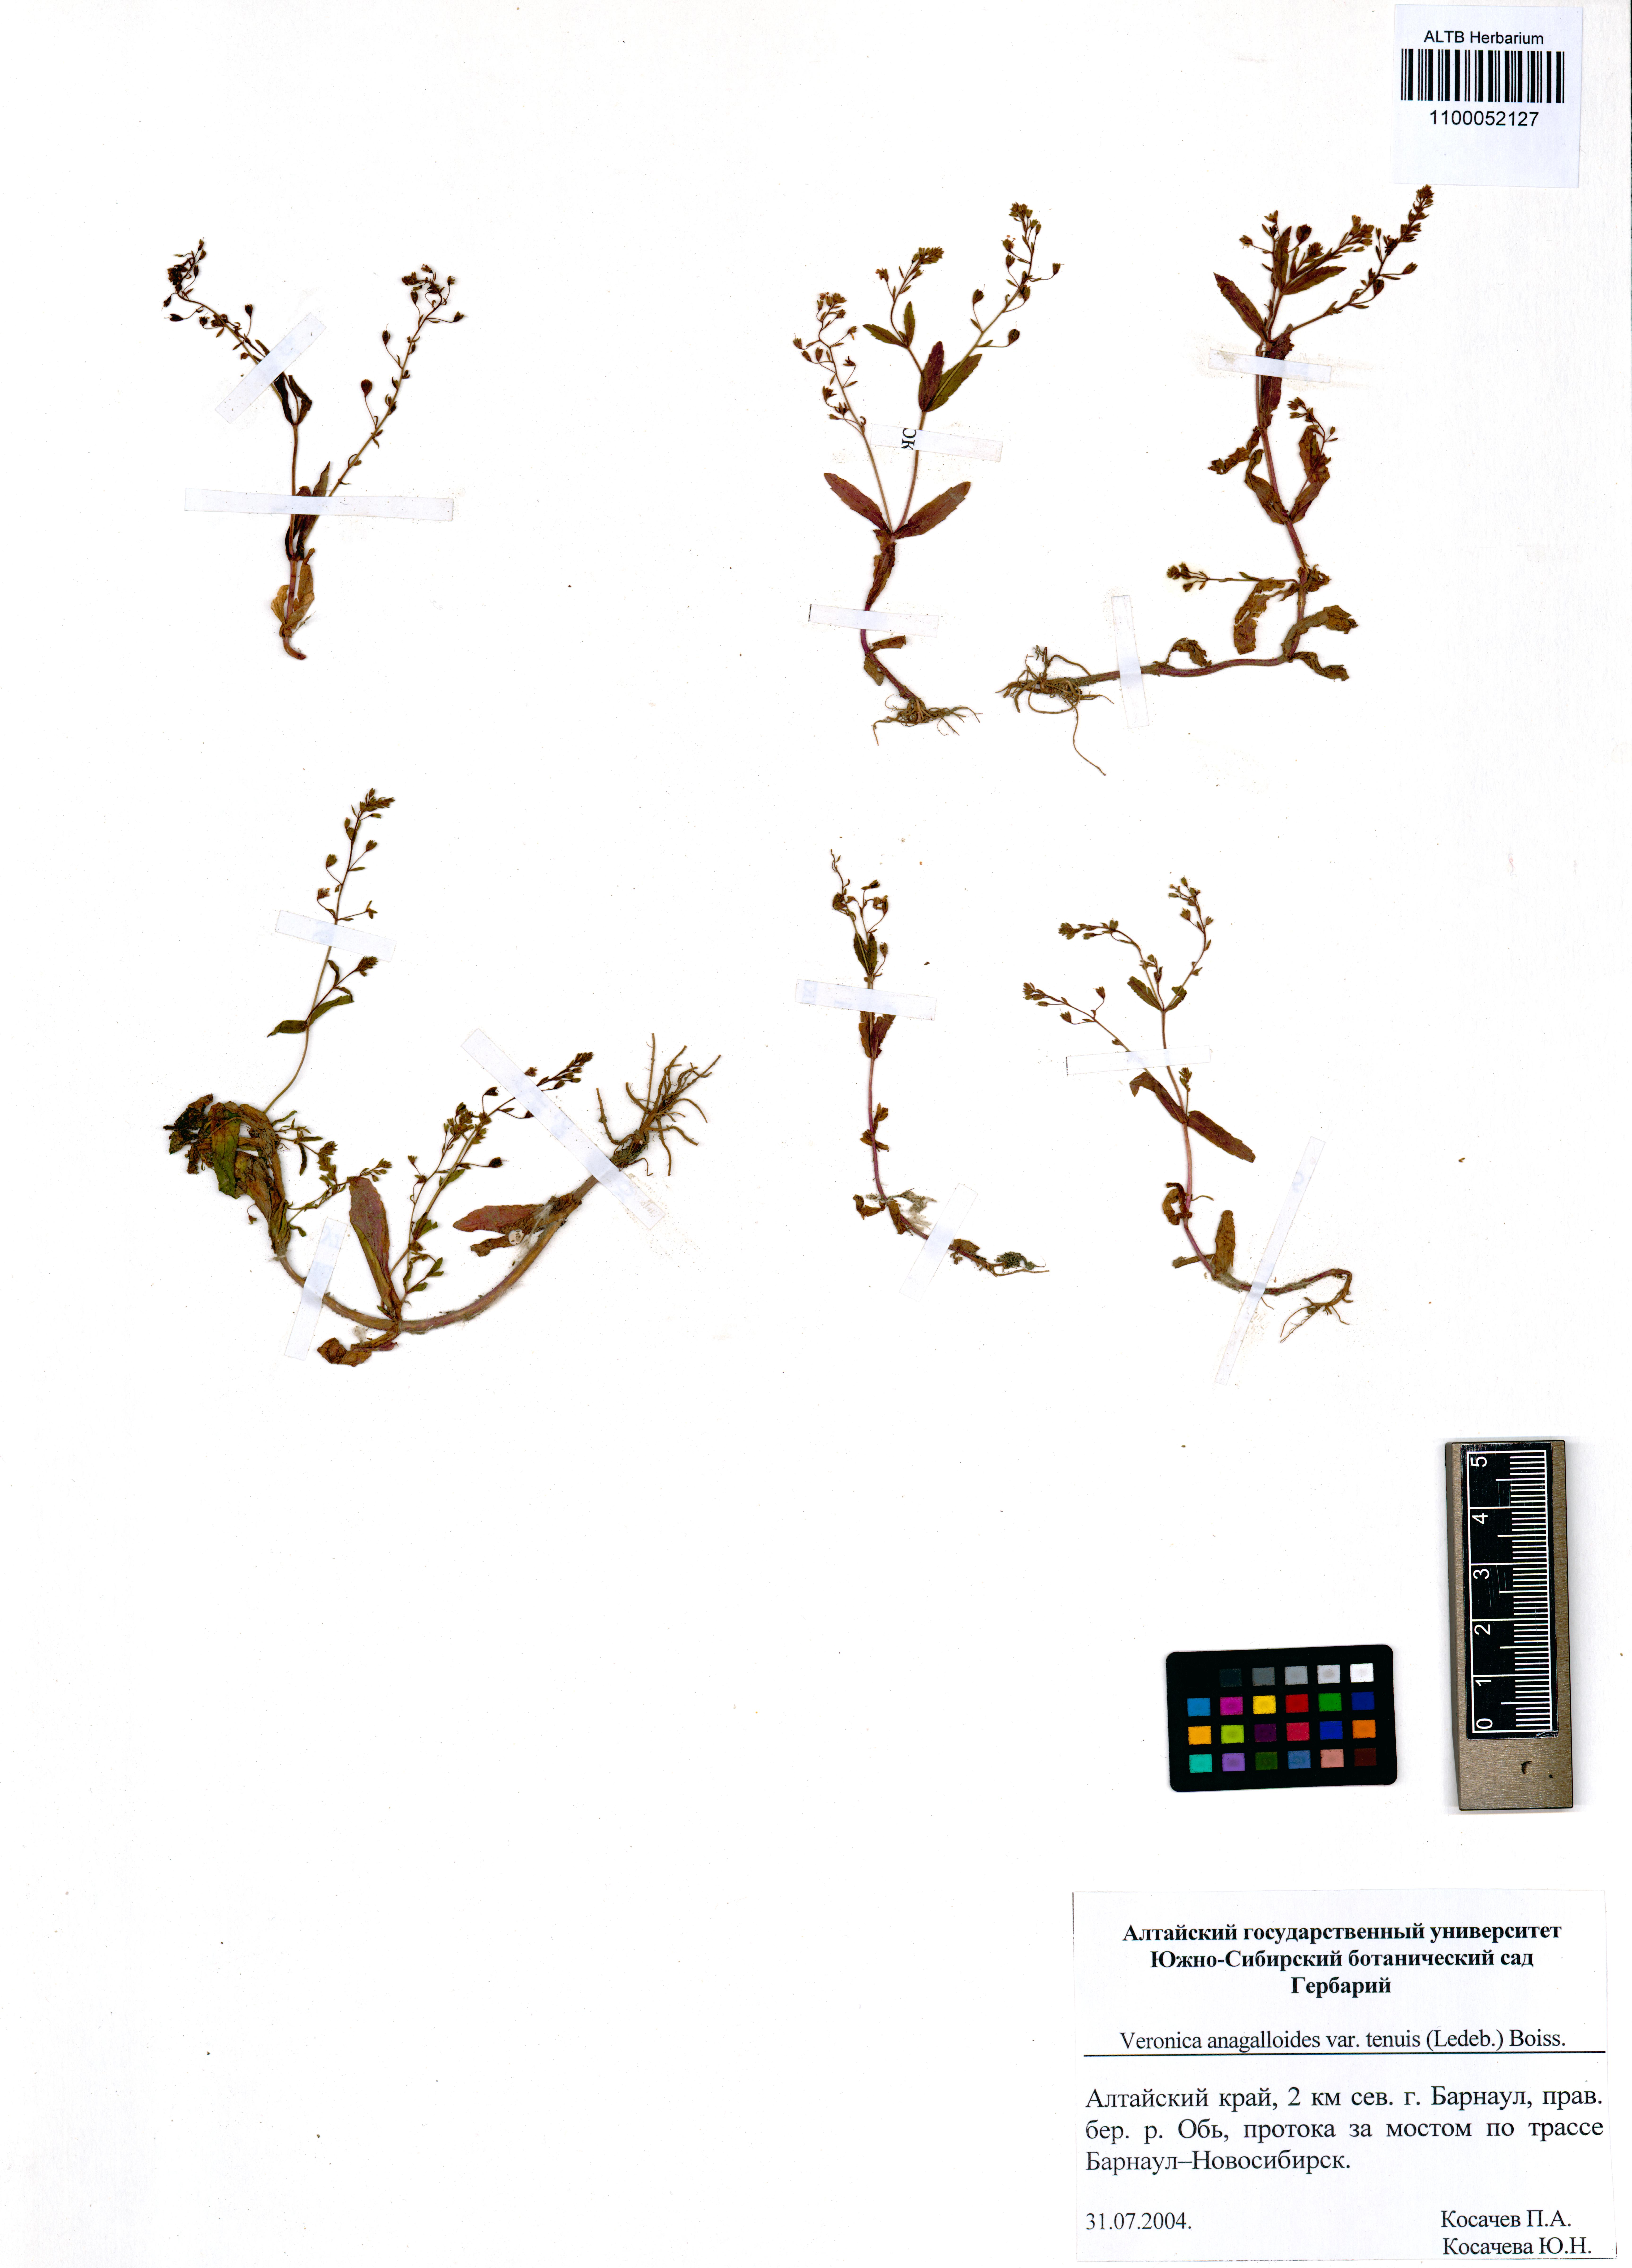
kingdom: Plantae
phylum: Tracheophyta
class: Magnoliopsida
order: Lamiales
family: Plantaginaceae
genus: Veronica
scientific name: Veronica anagalloides
